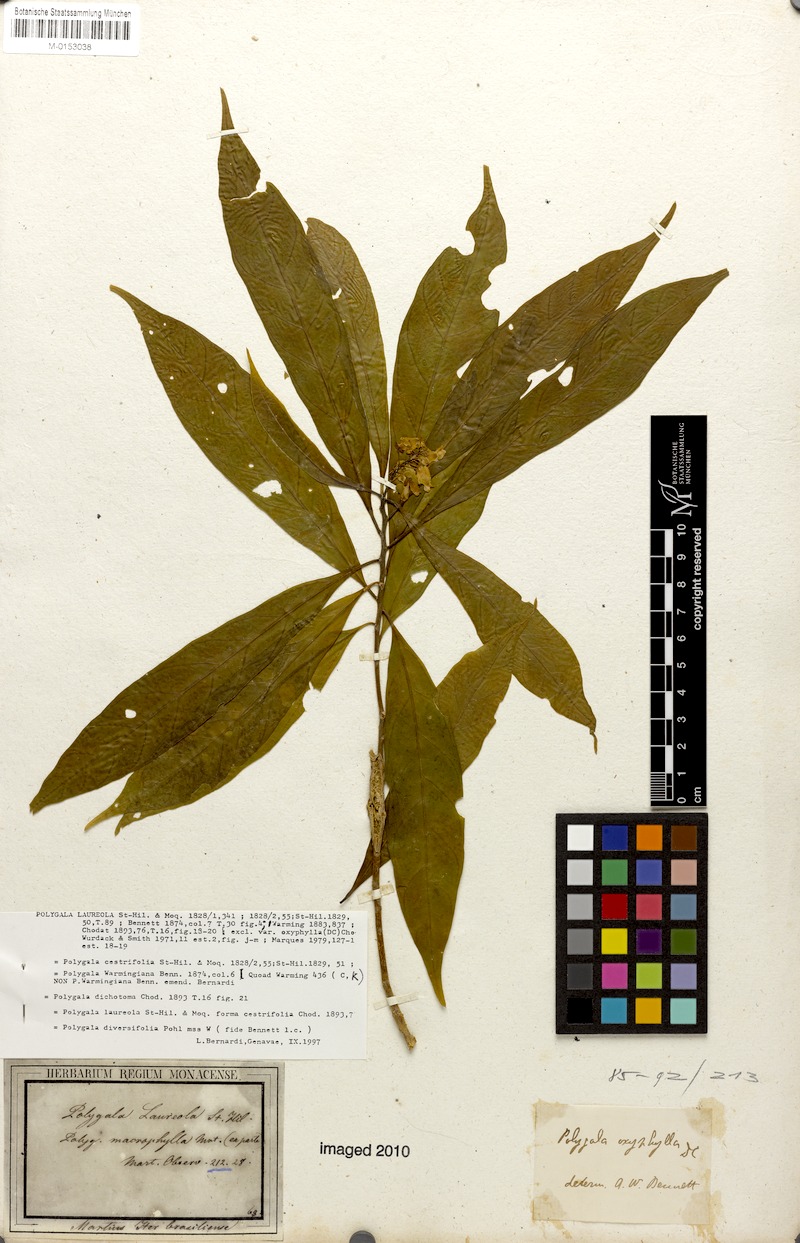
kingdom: Plantae
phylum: Tracheophyta
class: Magnoliopsida
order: Fabales
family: Polygalaceae
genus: Caamembeca
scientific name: Caamembeca salicifolia
